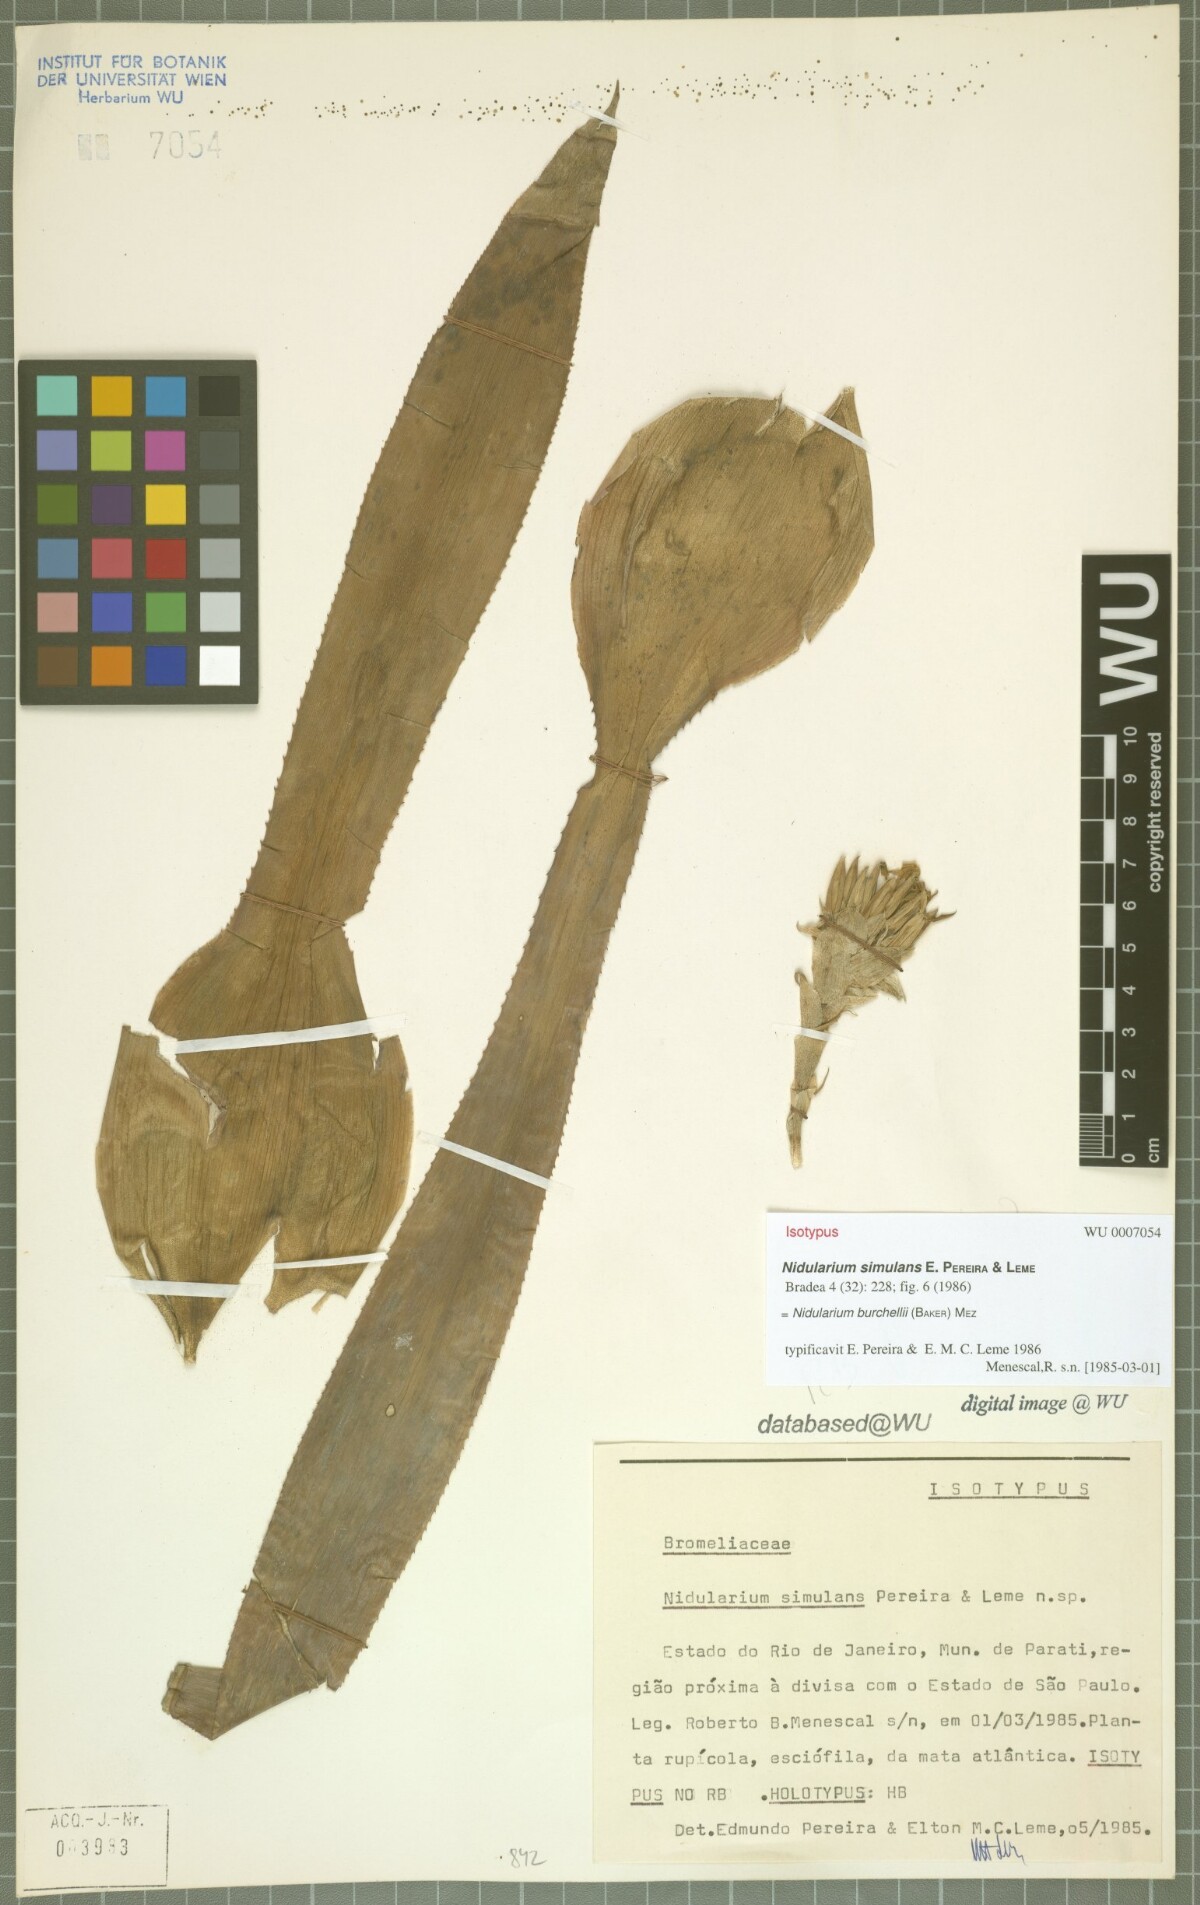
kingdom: Plantae
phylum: Tracheophyta
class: Liliopsida
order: Poales
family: Bromeliaceae
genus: Canistropsis
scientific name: Canistropsis burchellii
